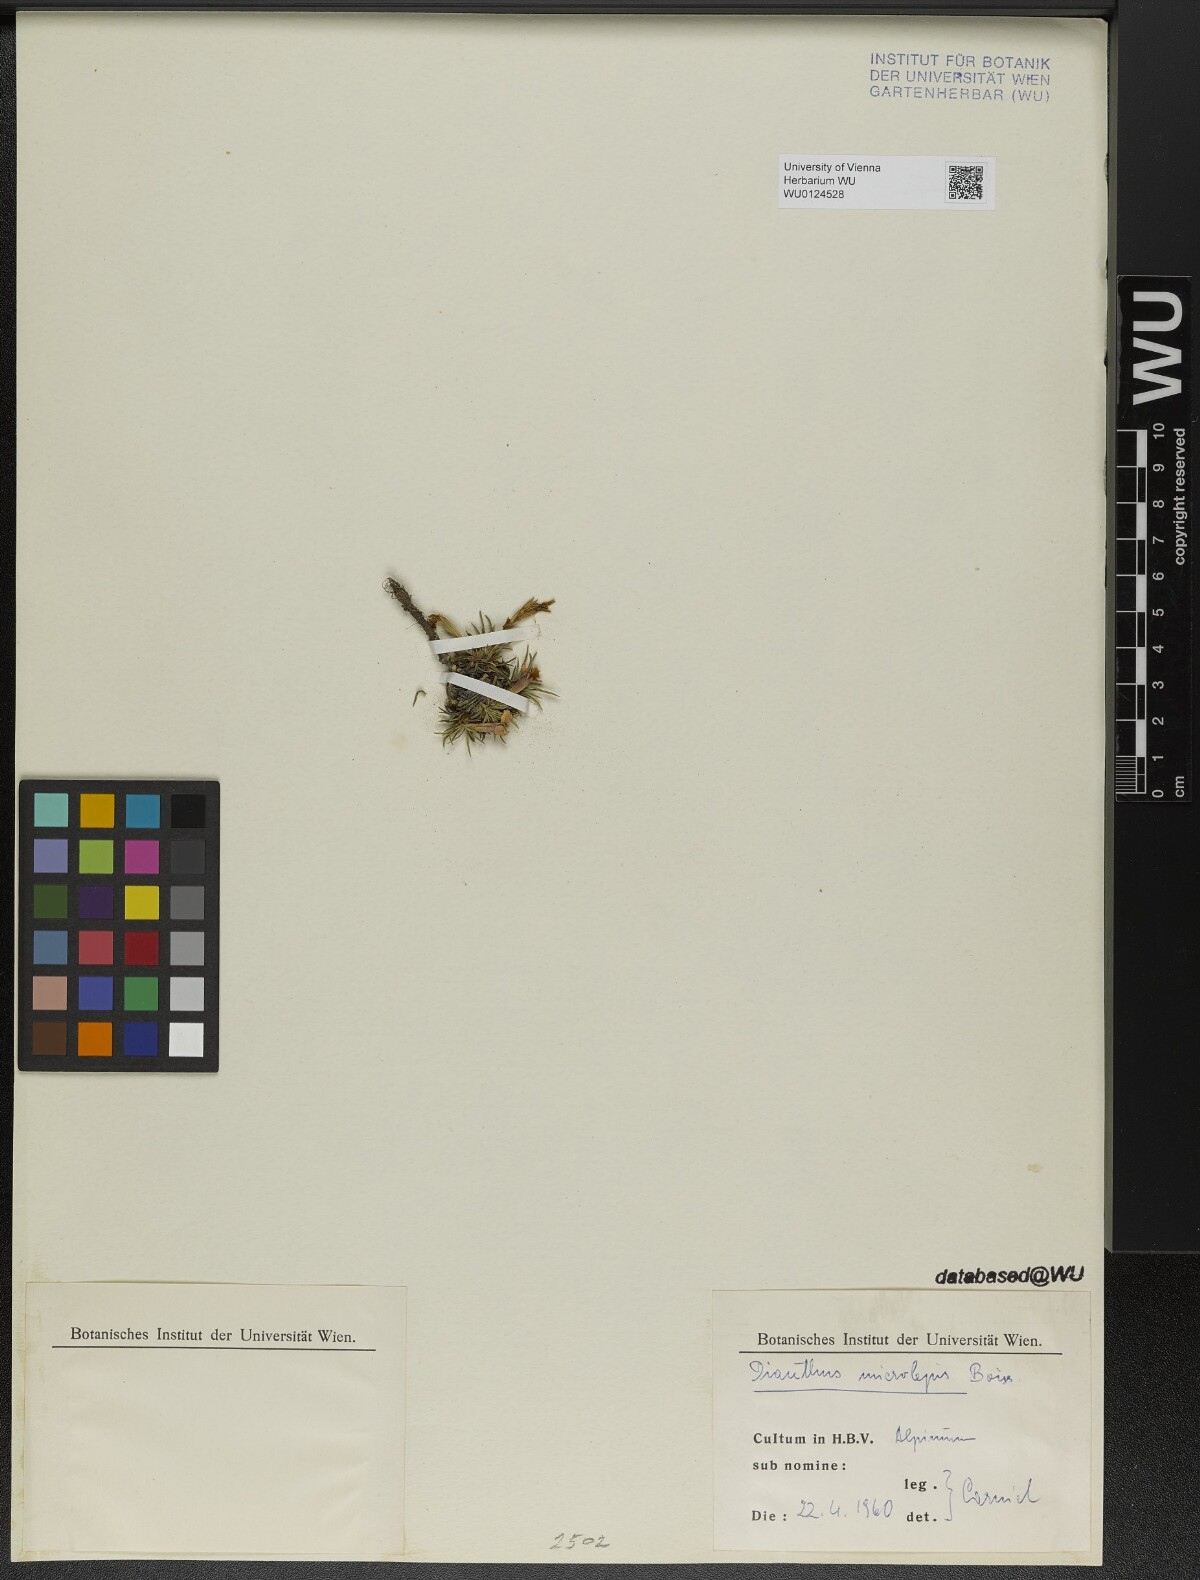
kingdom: Plantae
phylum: Tracheophyta
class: Magnoliopsida
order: Caryophyllales
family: Caryophyllaceae
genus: Dianthus
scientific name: Dianthus microlepis
